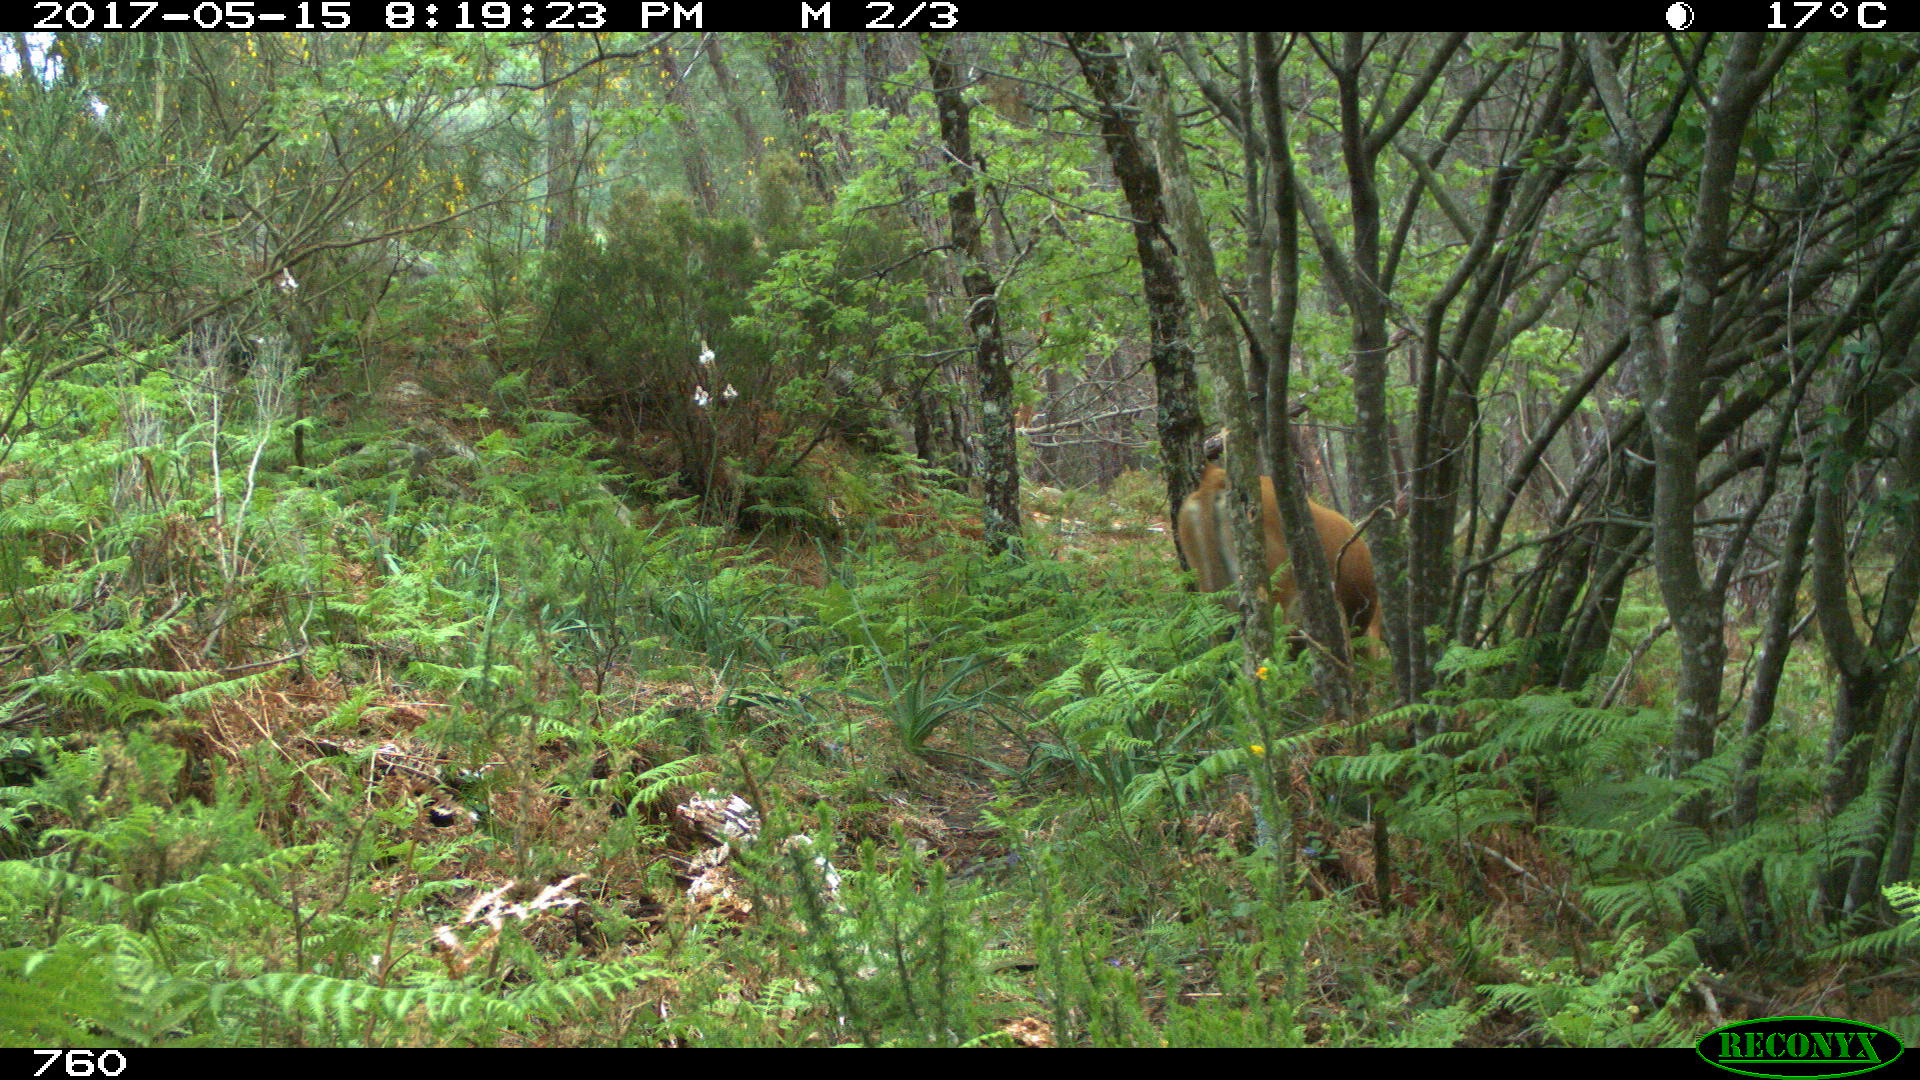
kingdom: Animalia
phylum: Chordata
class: Mammalia
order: Artiodactyla
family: Bovidae
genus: Bos
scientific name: Bos taurus
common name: Domesticated cattle
